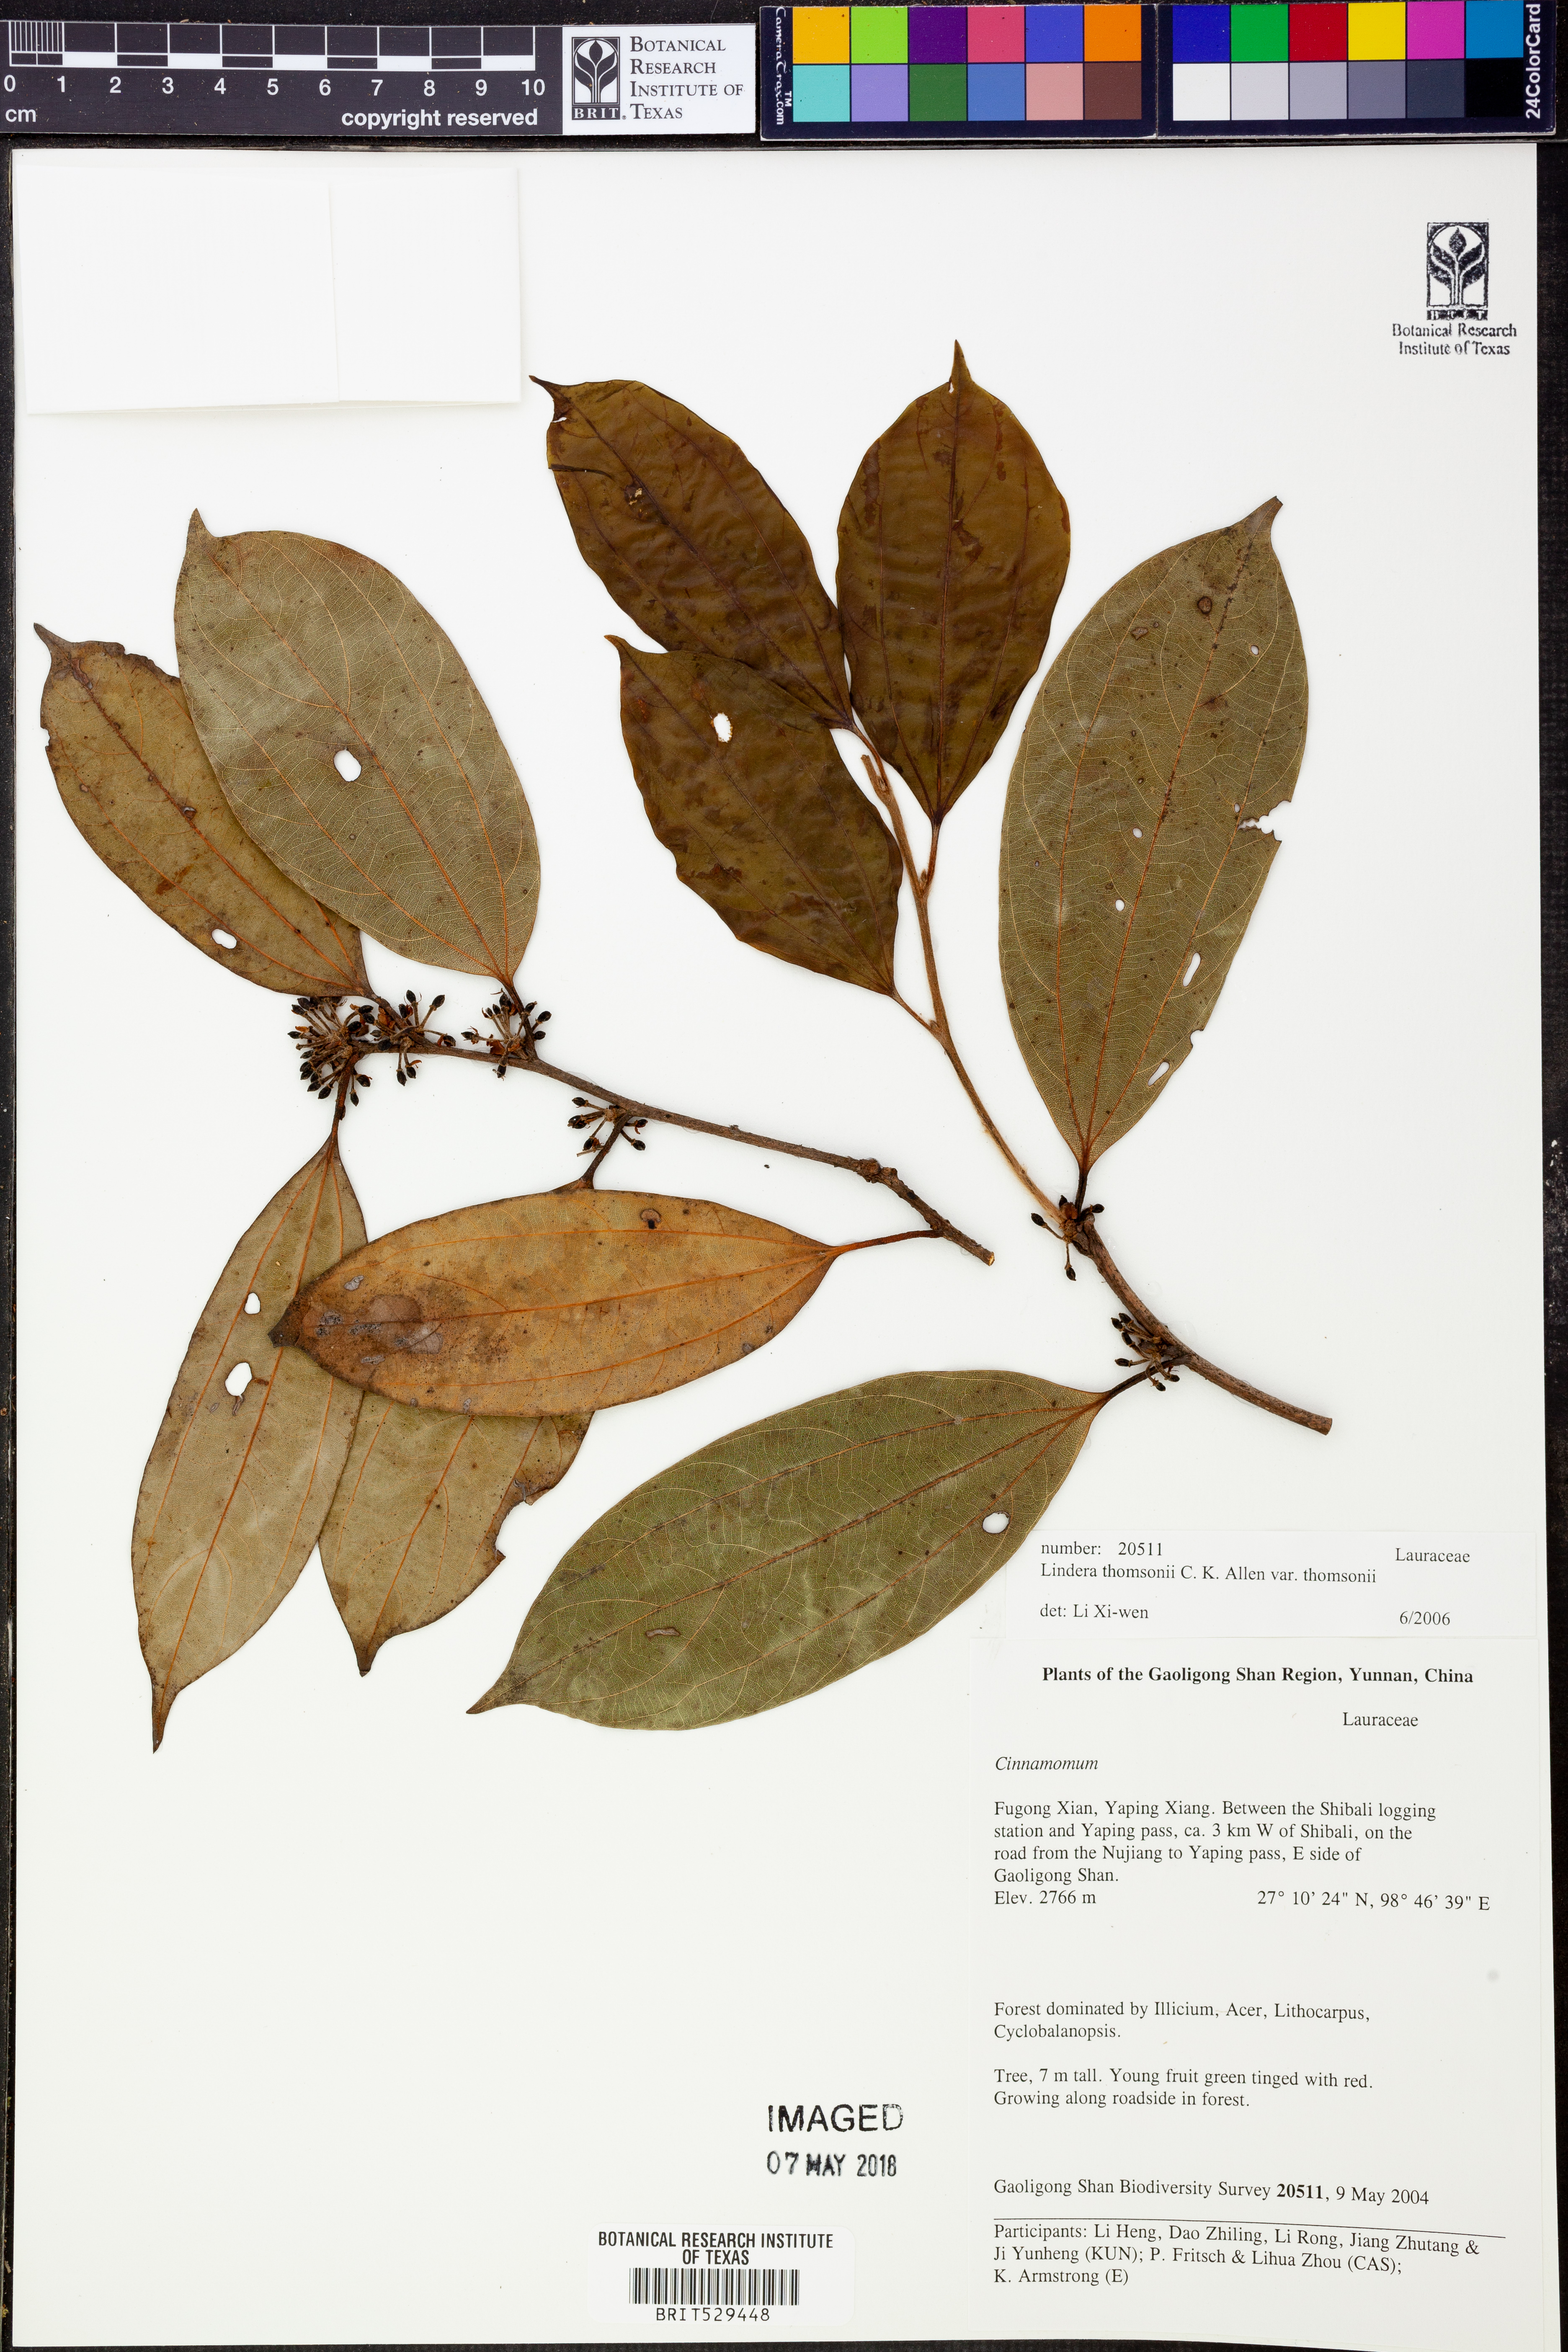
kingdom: Plantae
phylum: Tracheophyta
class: Magnoliopsida
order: Laurales
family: Lauraceae
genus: Lindera
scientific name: Lindera thomsonii
